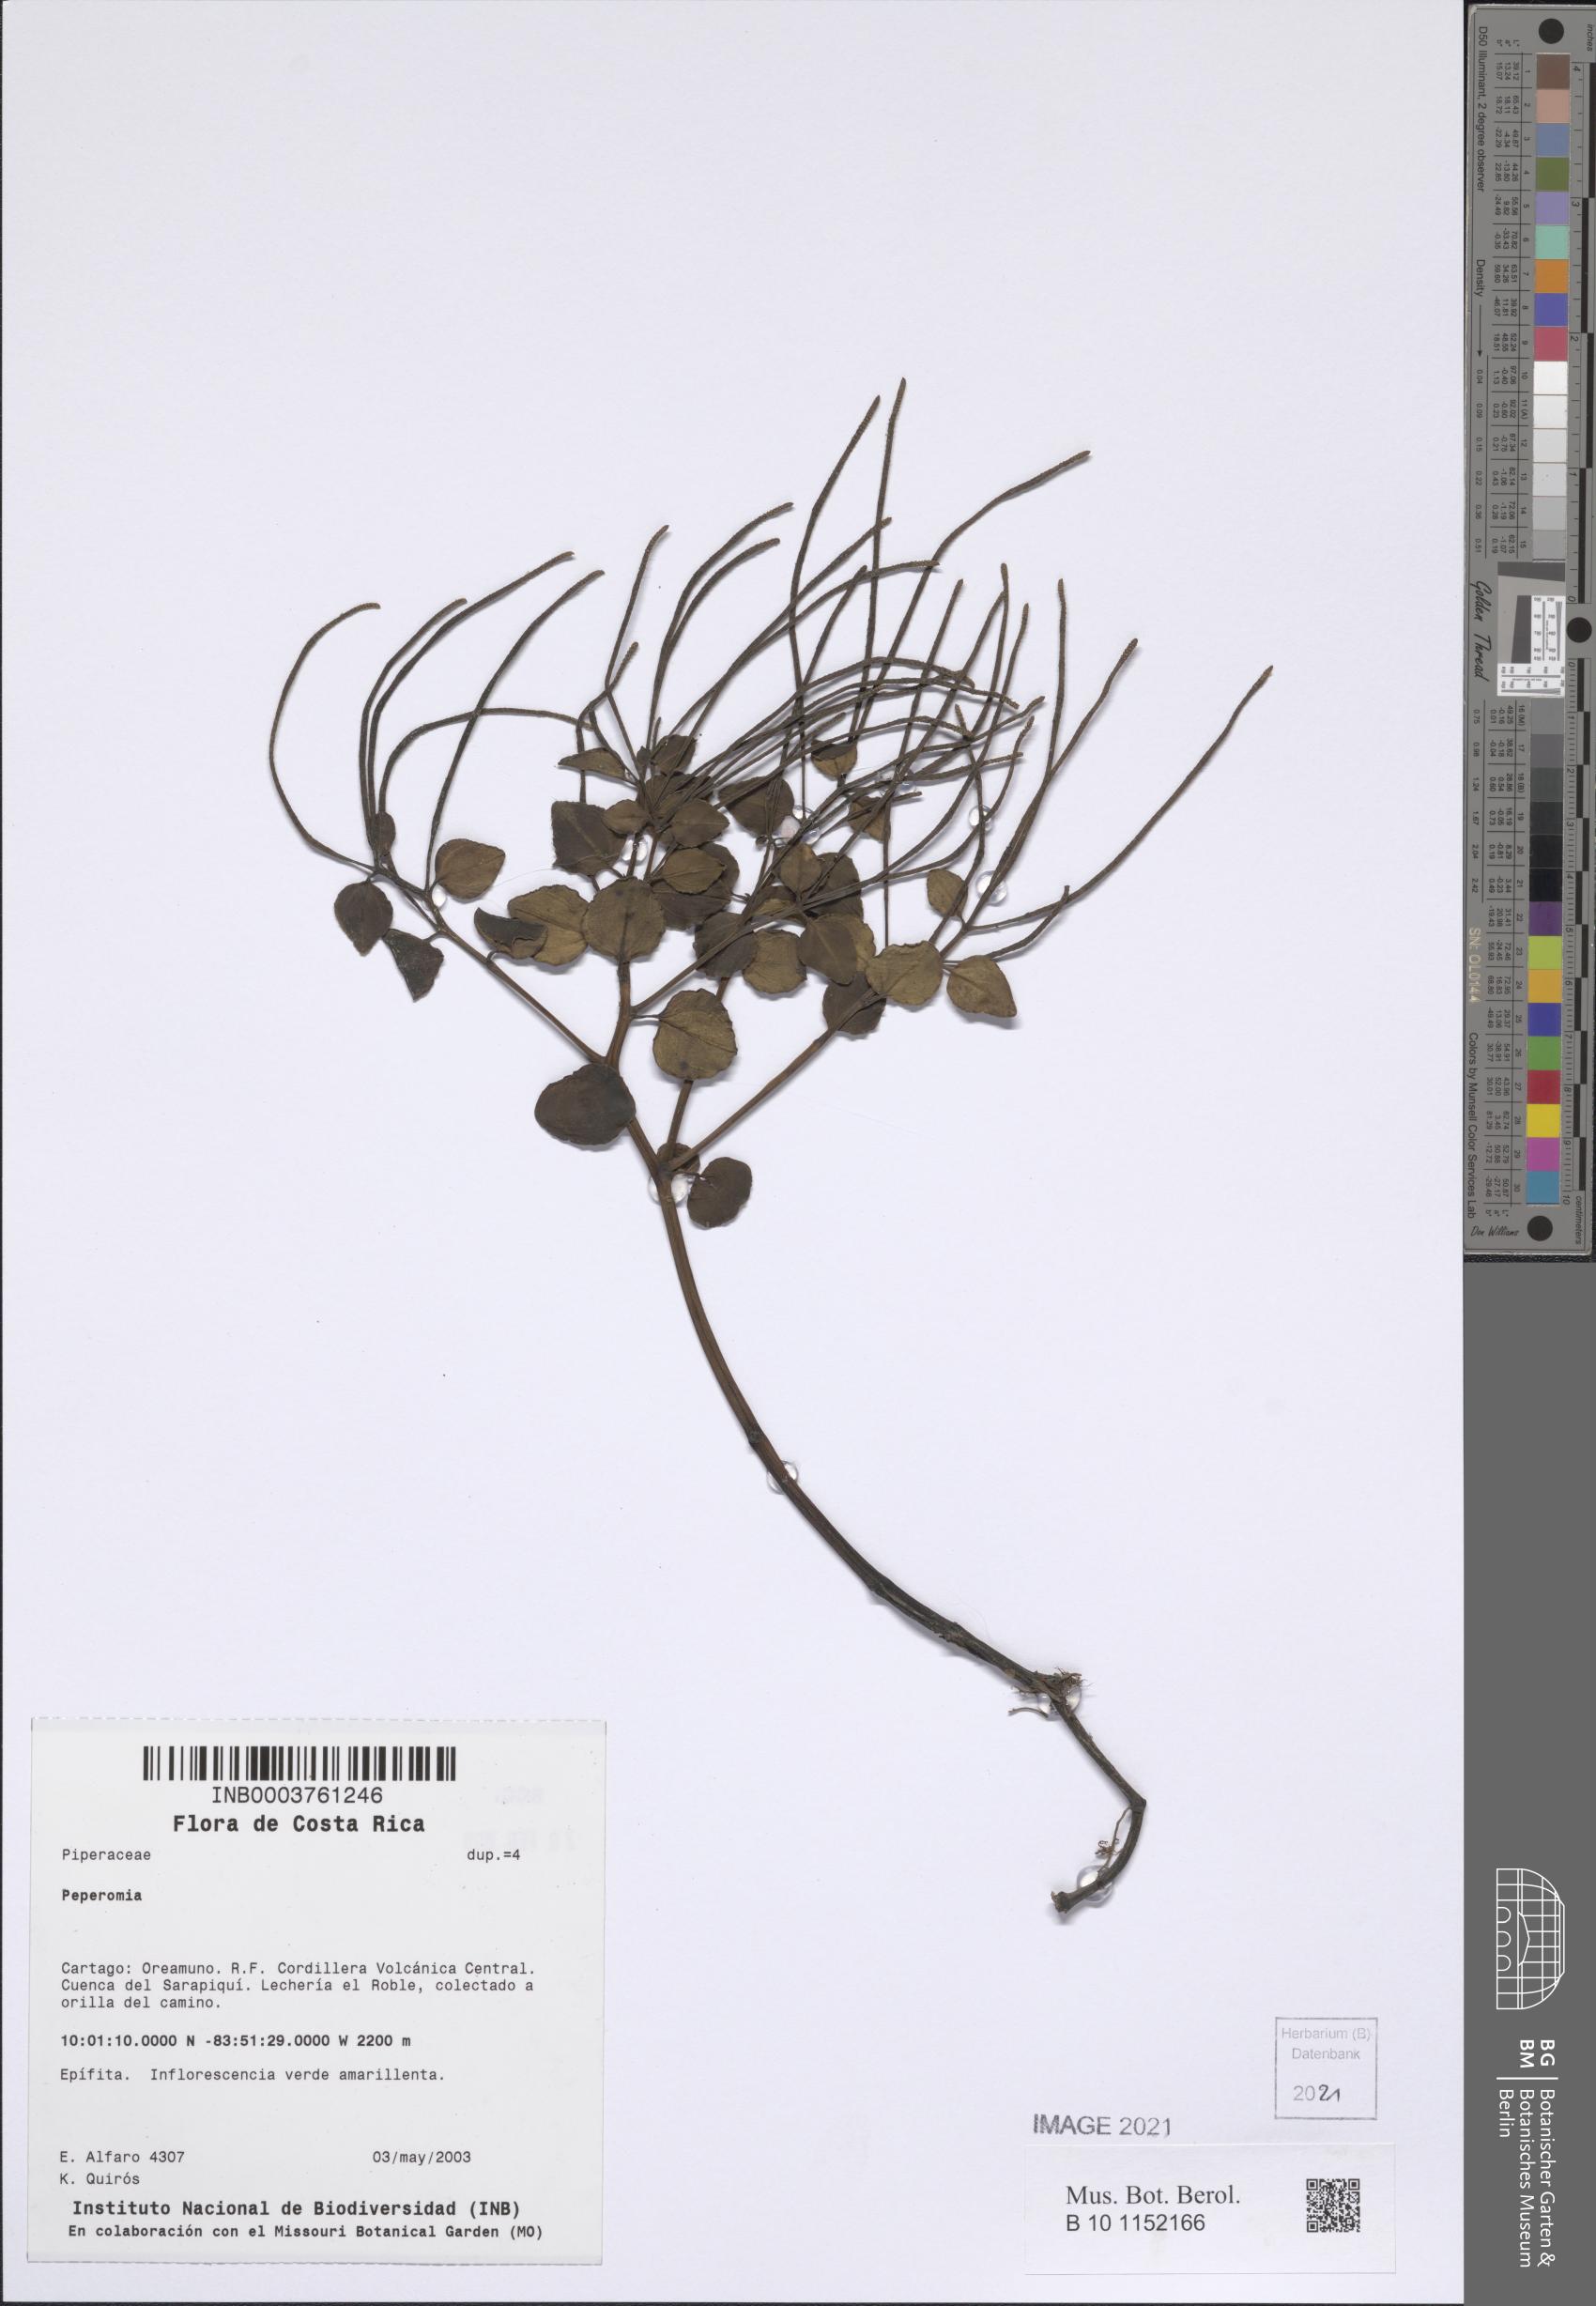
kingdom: Plantae
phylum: Tracheophyta
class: Magnoliopsida
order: Piperales
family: Piperaceae
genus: Peperomia
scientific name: Peperomia
